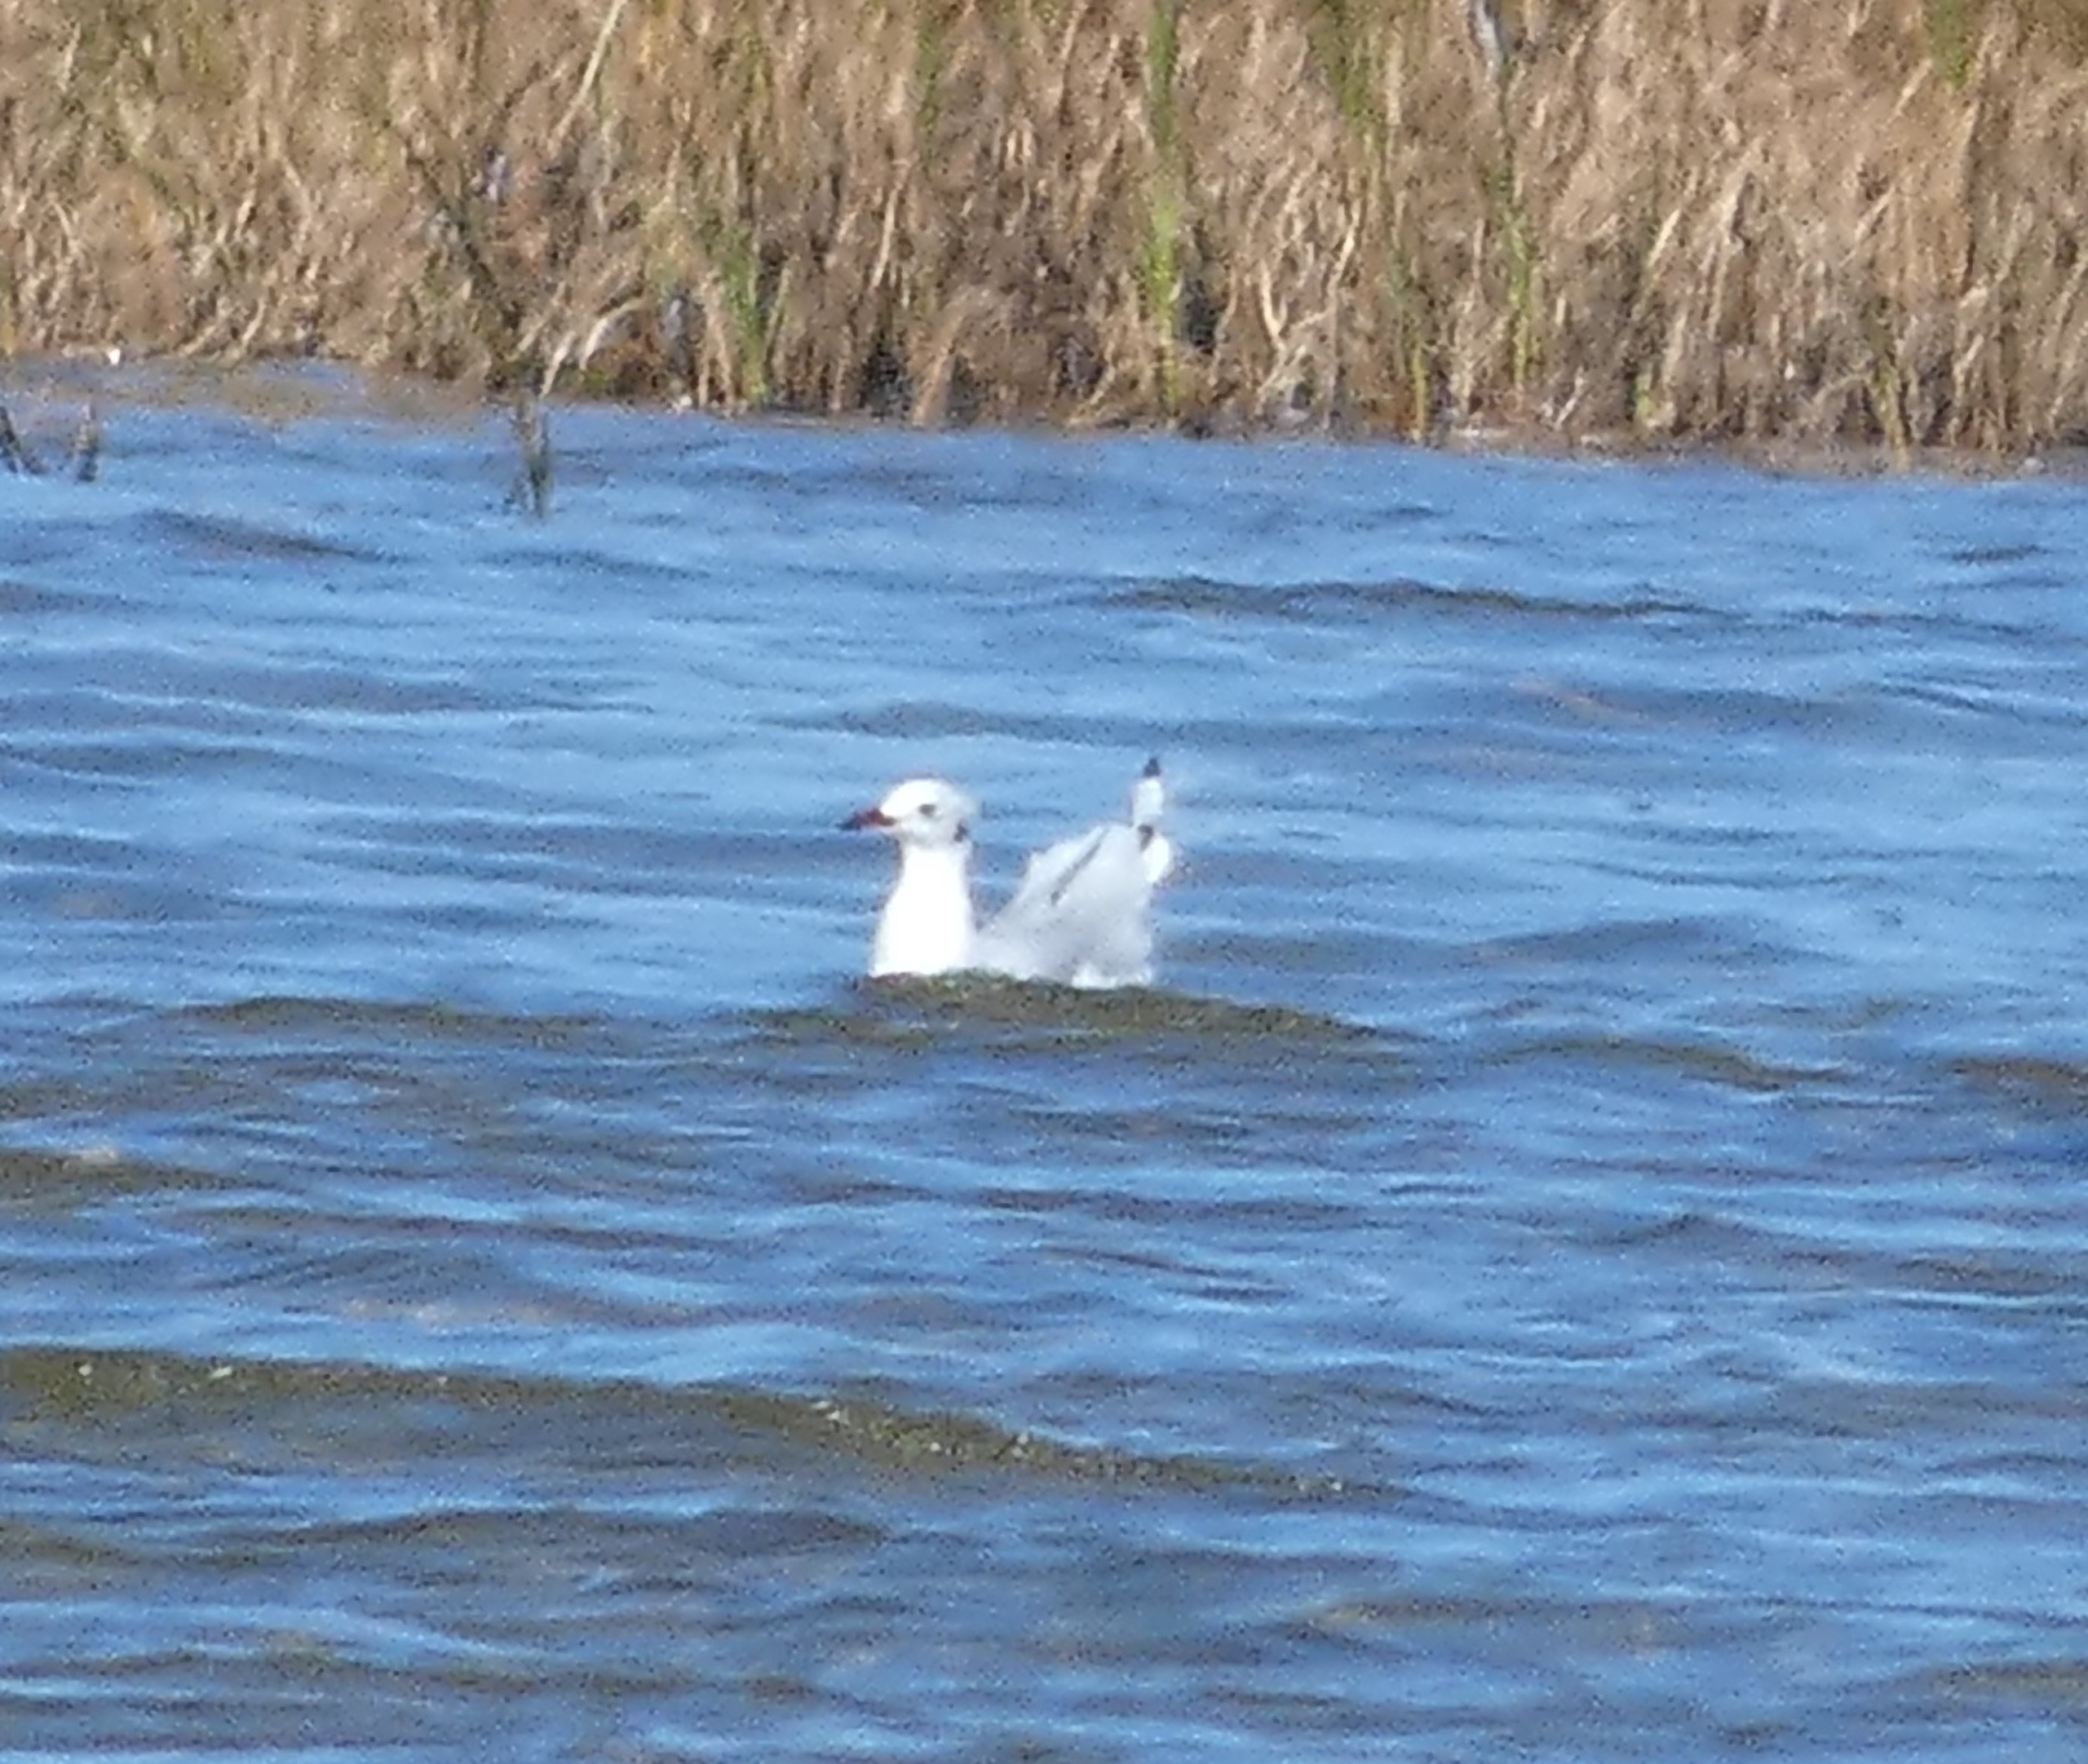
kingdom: Animalia
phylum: Chordata
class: Aves
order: Charadriiformes
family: Laridae
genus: Chroicocephalus
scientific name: Chroicocephalus ridibundus
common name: Hættemåge
